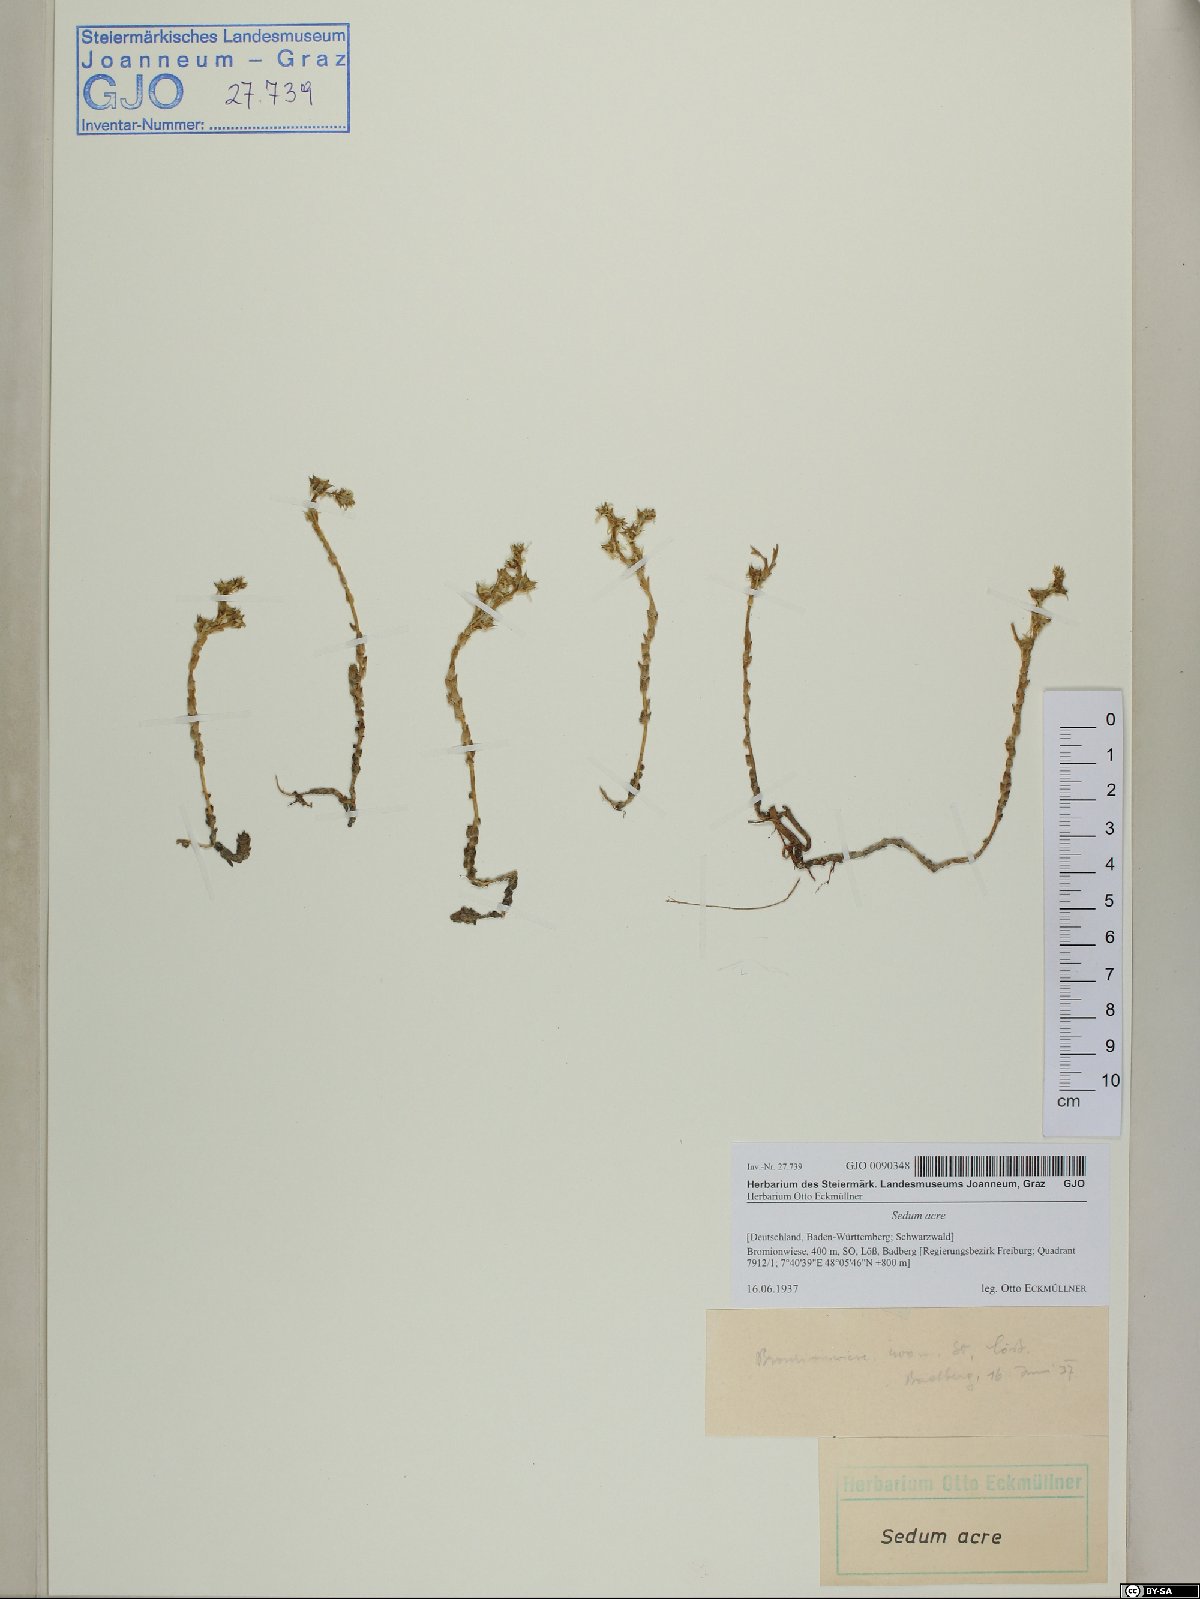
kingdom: Plantae
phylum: Tracheophyta
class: Magnoliopsida
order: Saxifragales
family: Crassulaceae
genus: Sedum
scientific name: Sedum acre
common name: Biting stonecrop
